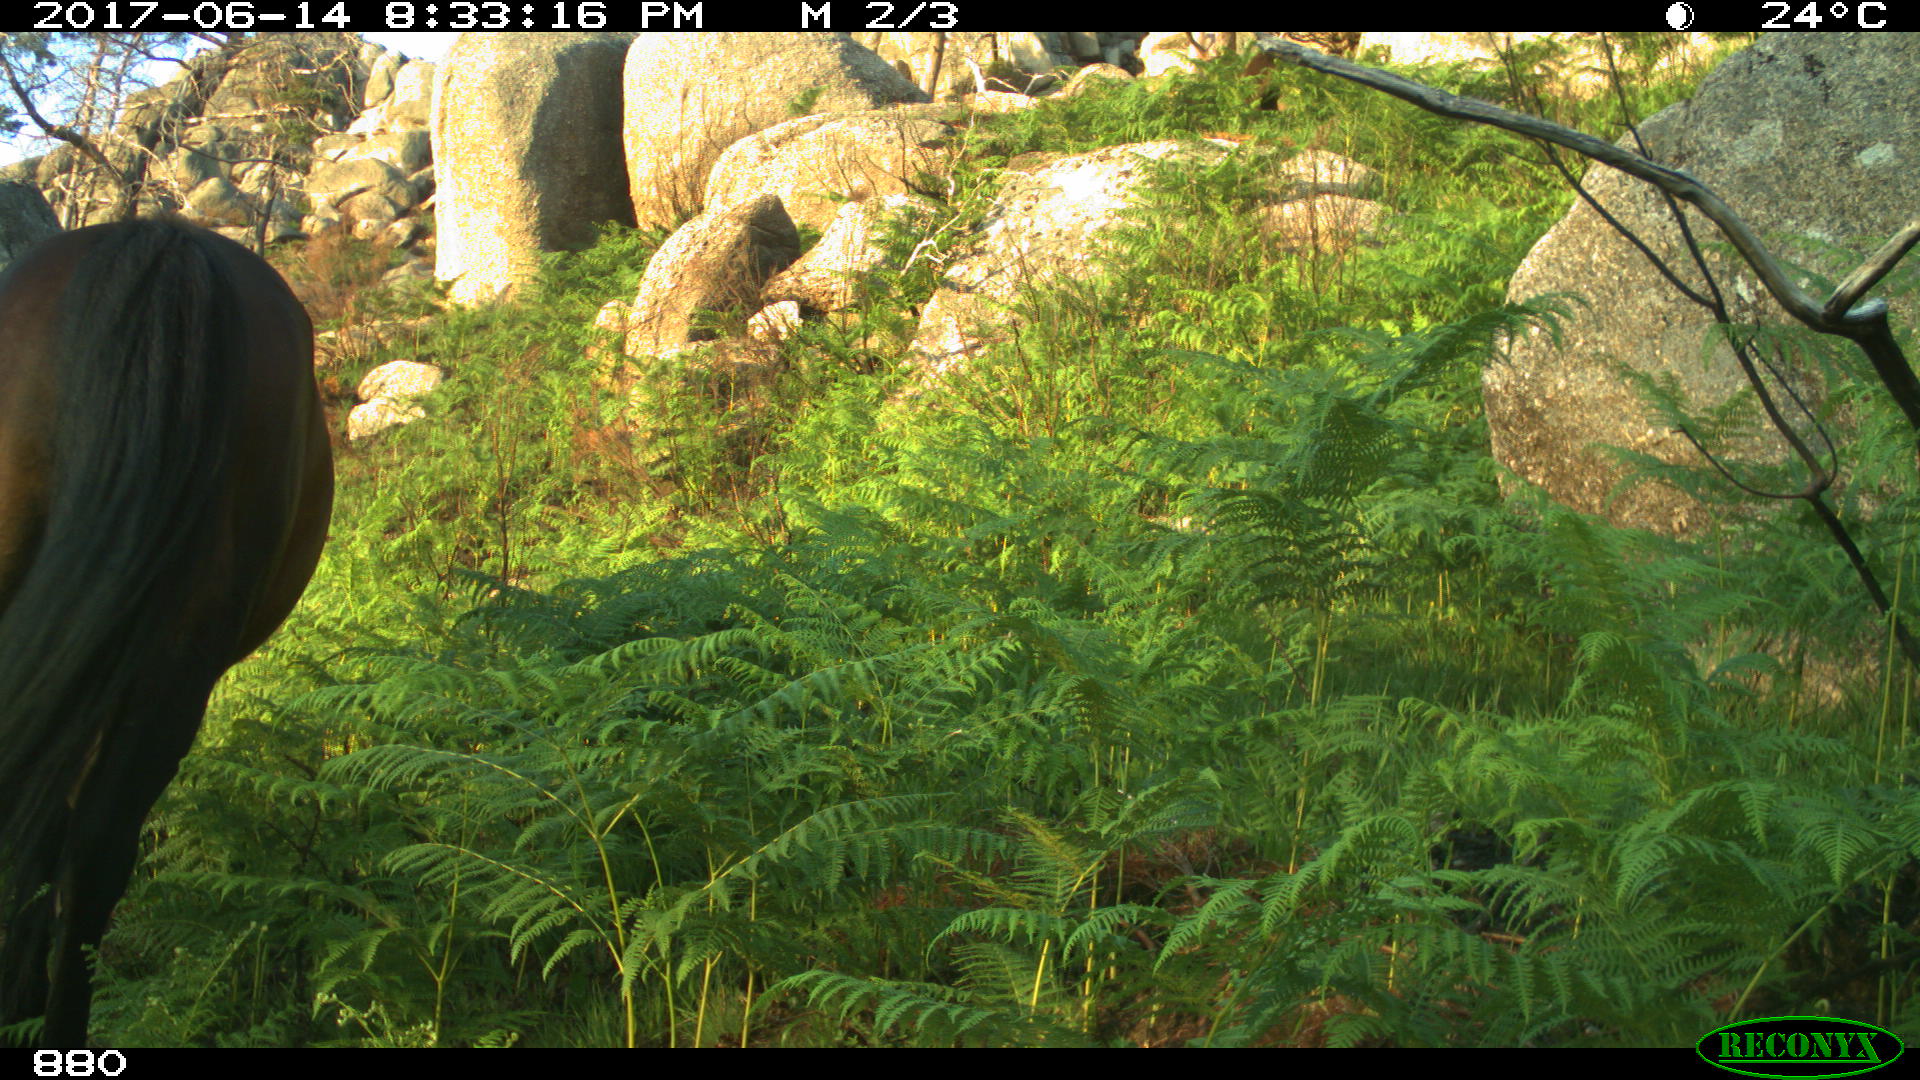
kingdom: Animalia
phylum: Chordata
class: Mammalia
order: Perissodactyla
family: Equidae
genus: Equus
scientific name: Equus caballus
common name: Horse
